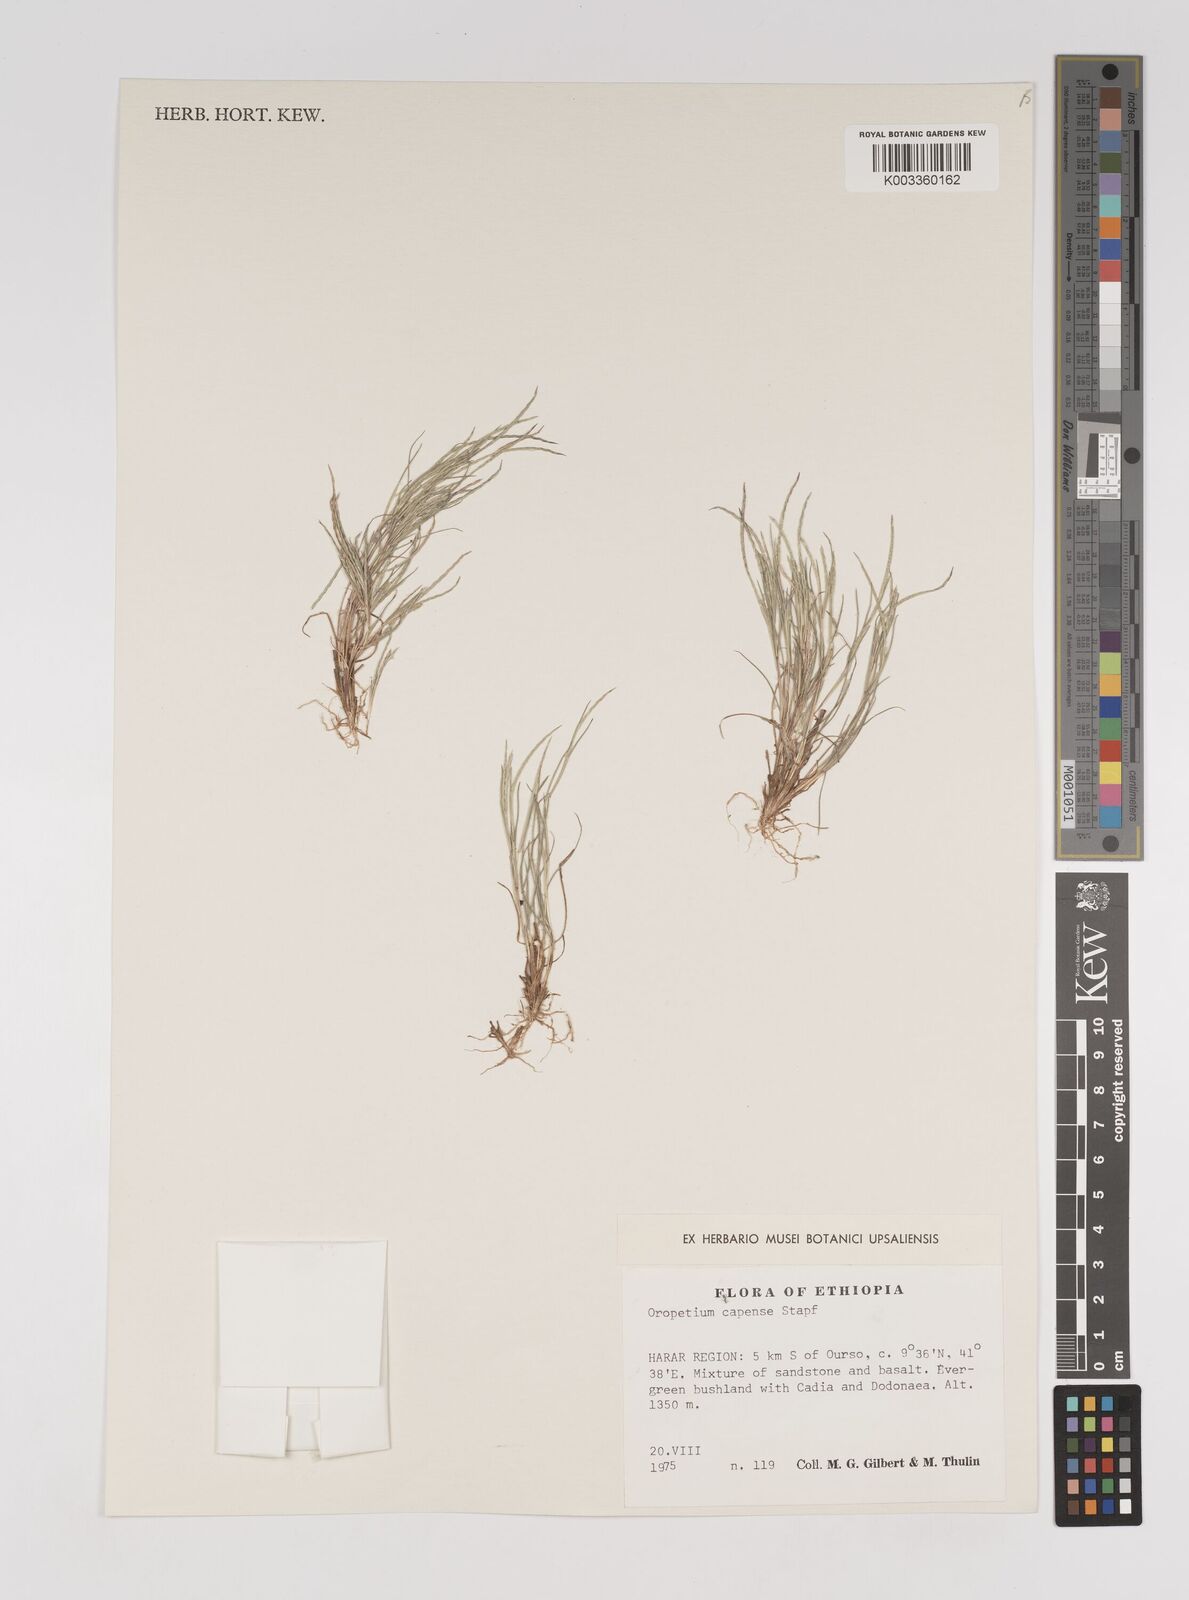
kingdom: Plantae
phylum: Tracheophyta
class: Liliopsida
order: Poales
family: Poaceae
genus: Oropetium
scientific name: Oropetium capense
